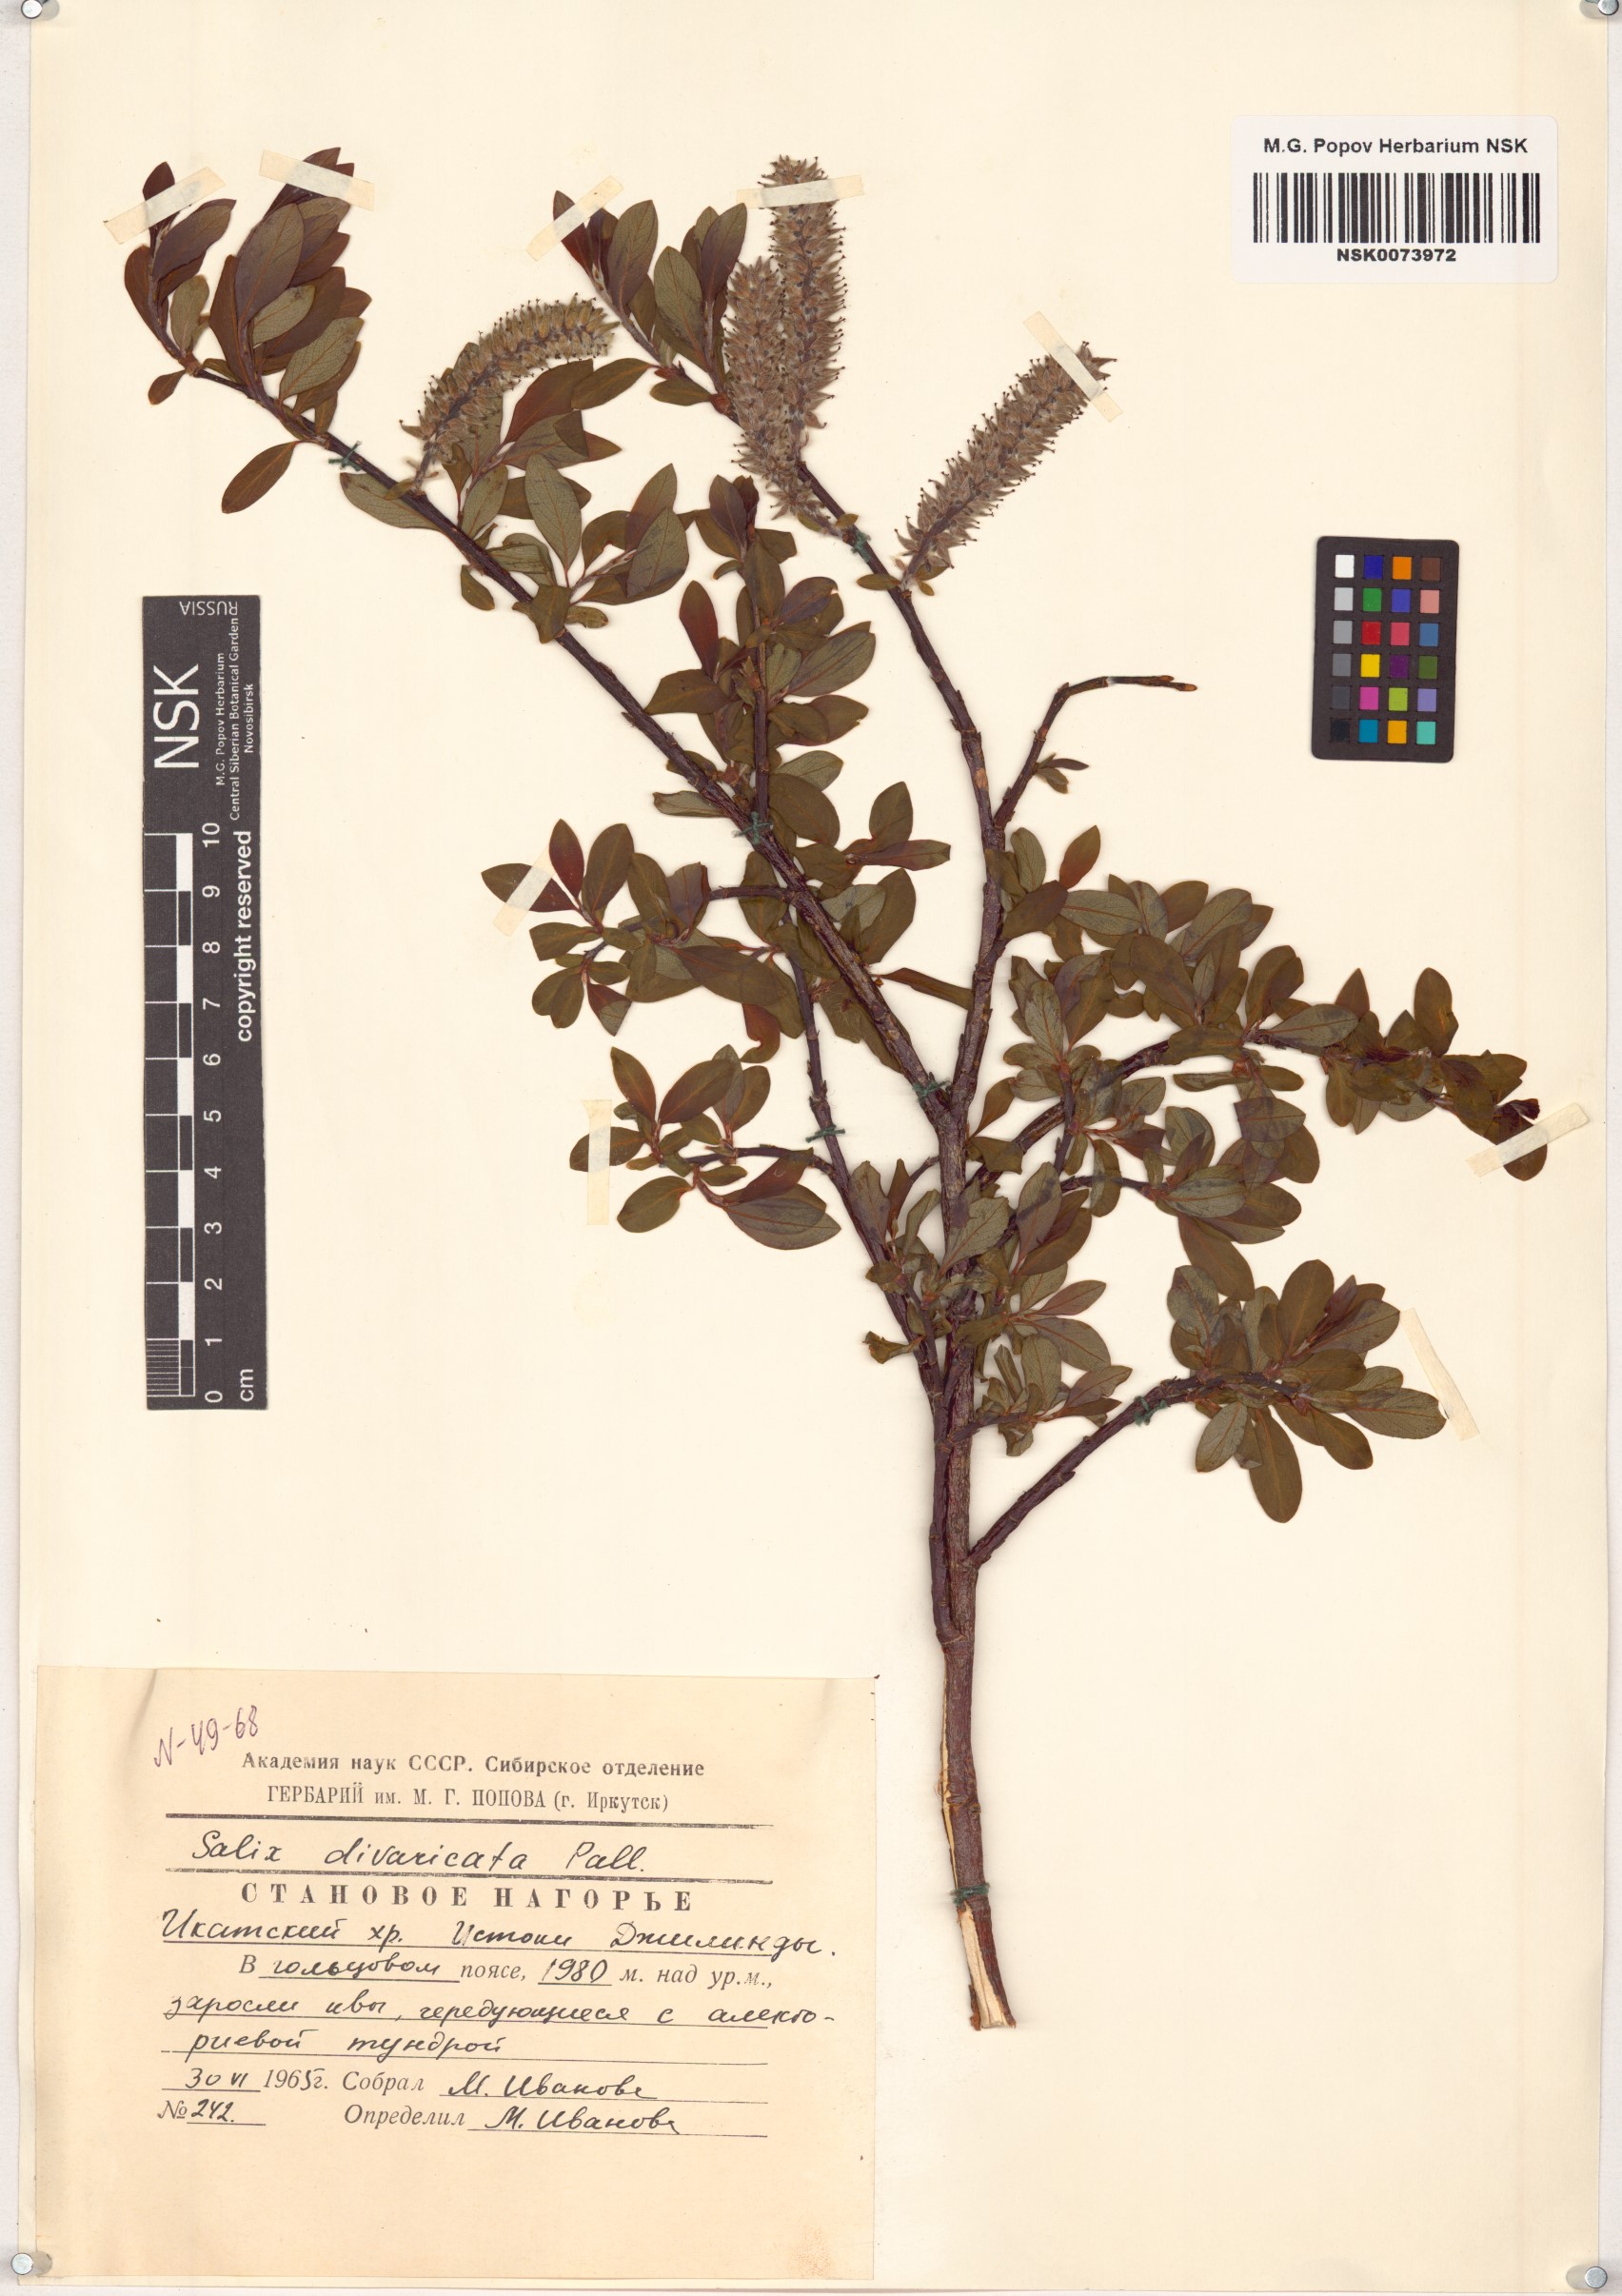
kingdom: Plantae
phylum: Tracheophyta
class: Magnoliopsida
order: Malpighiales
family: Salicaceae
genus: Salix
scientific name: Salix divaricata
